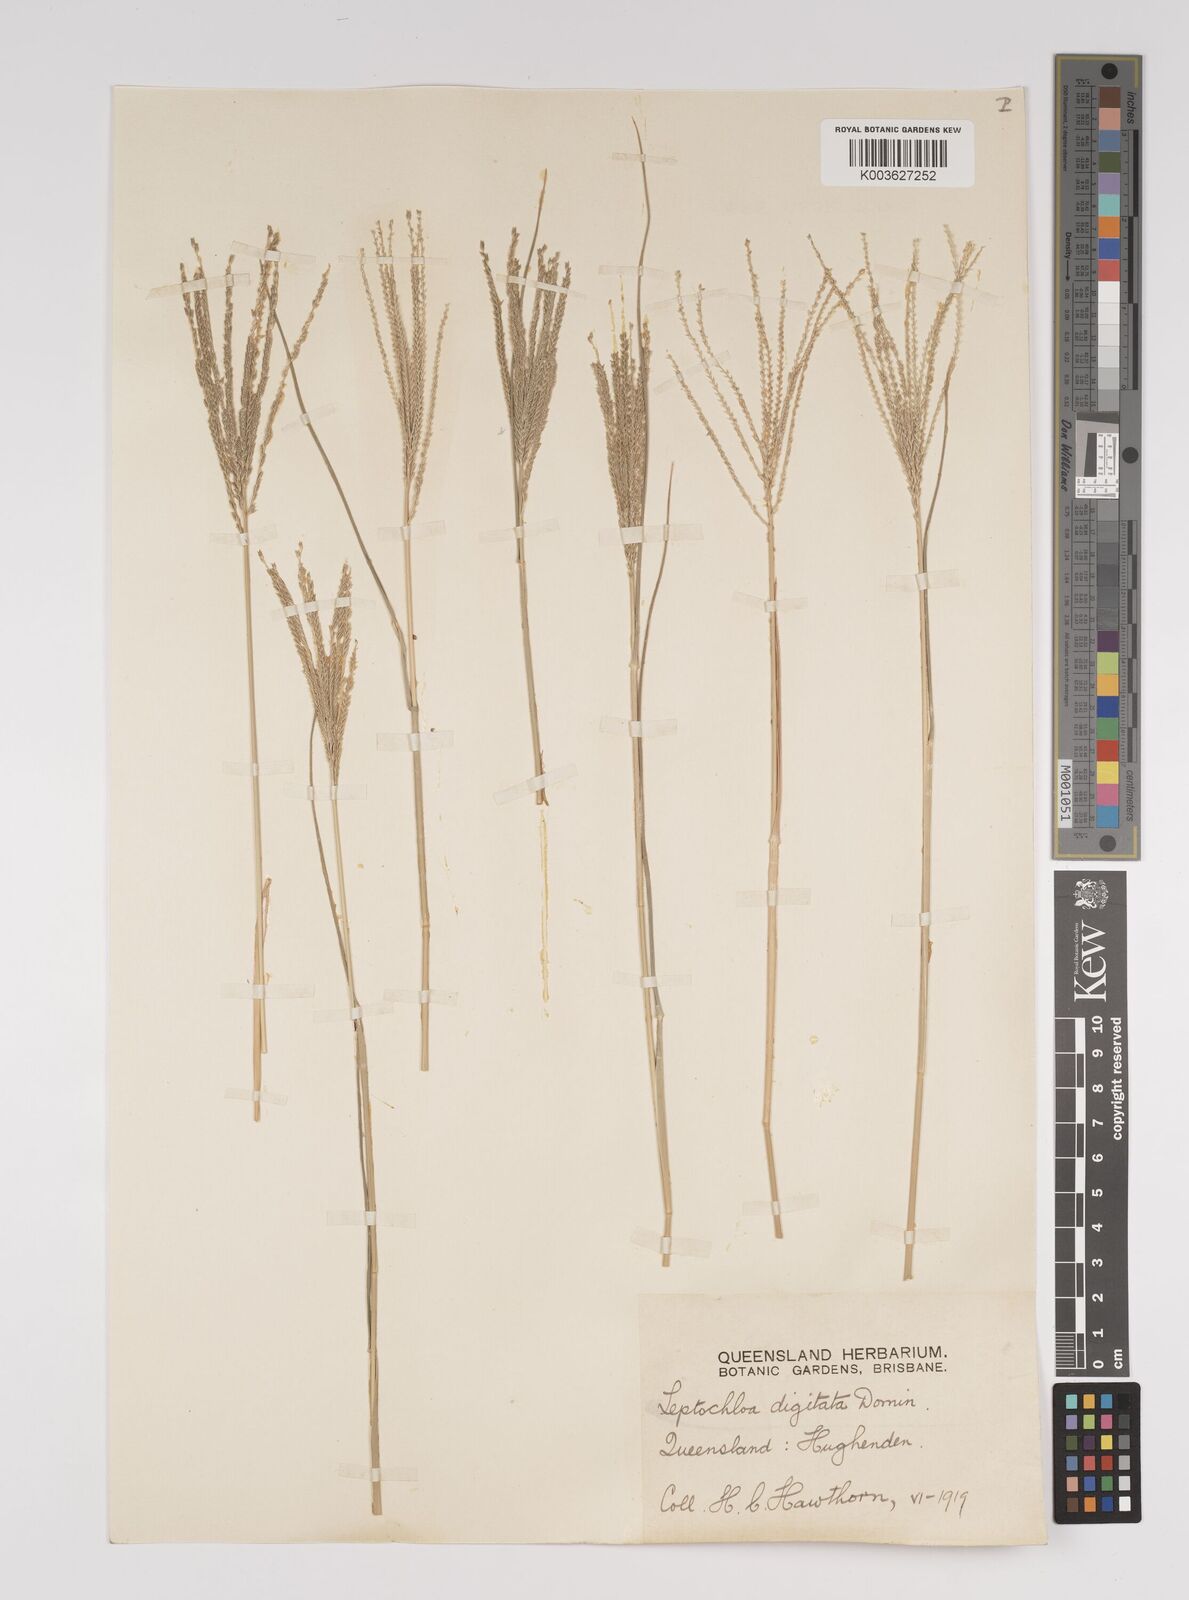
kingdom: Plantae
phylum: Tracheophyta
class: Liliopsida
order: Poales
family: Poaceae
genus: Leptochloa
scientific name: Leptochloa digitata
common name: Finger sprangletop
